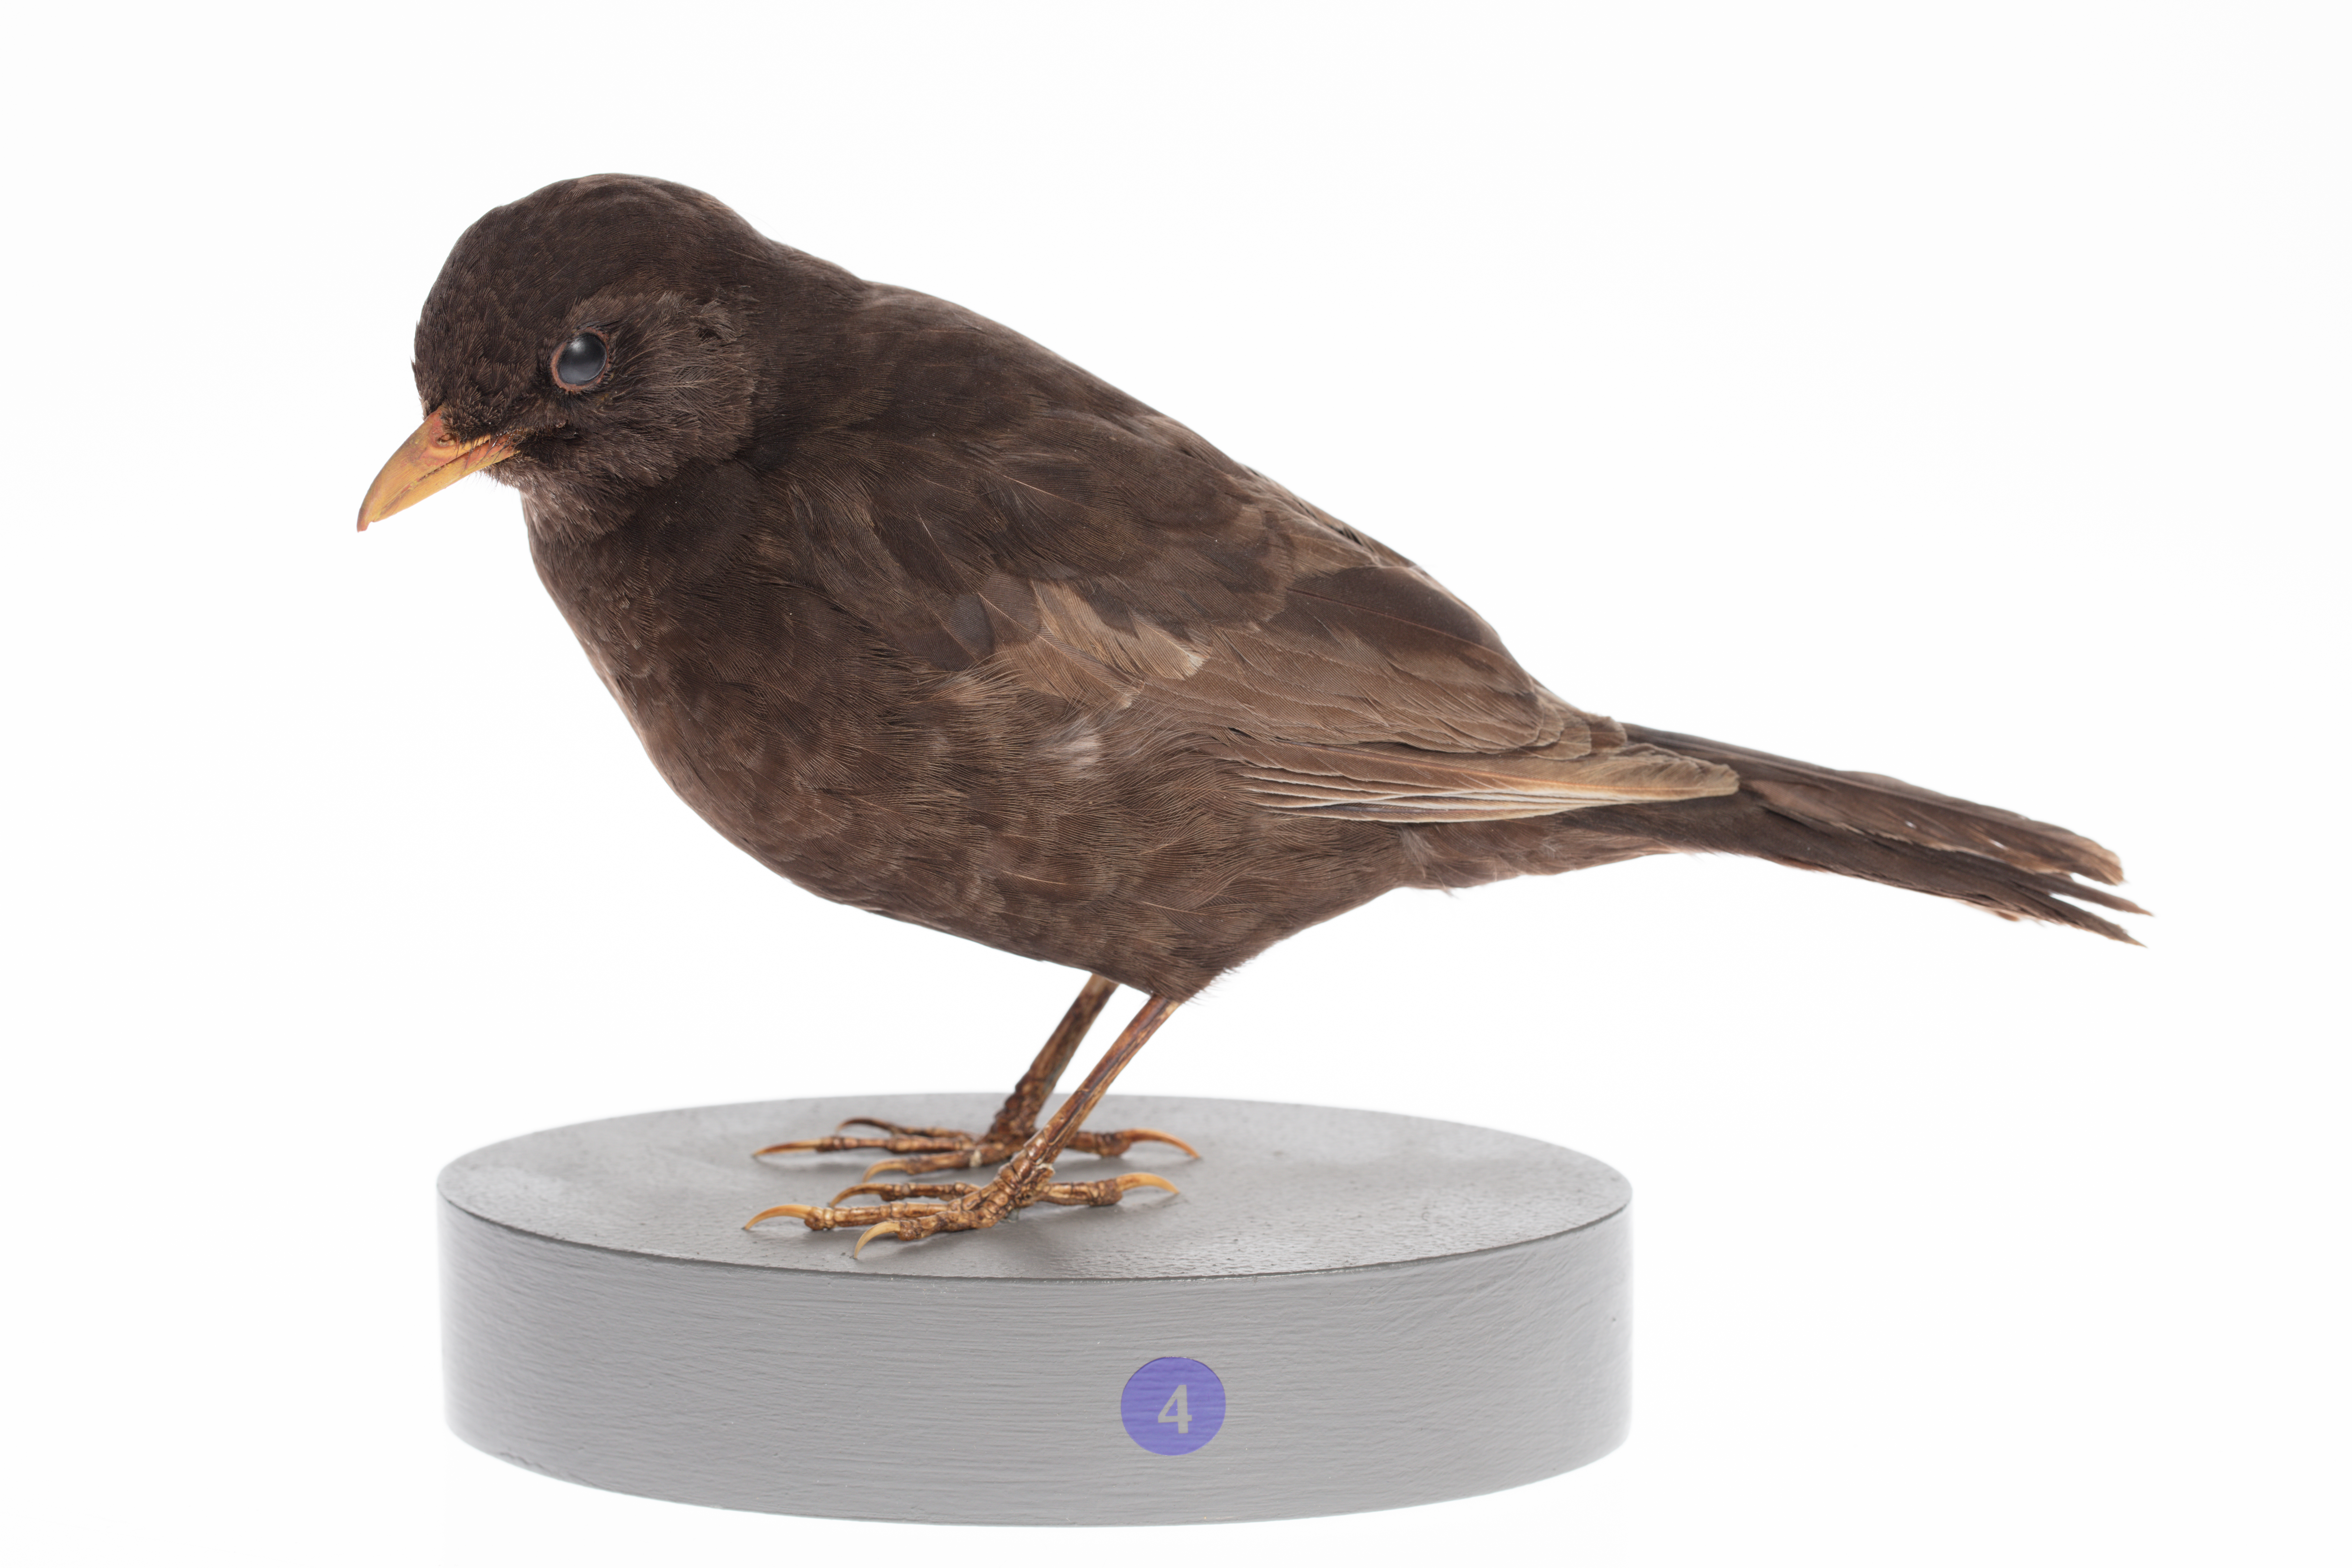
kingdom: Animalia
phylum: Chordata
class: Aves
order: Passeriformes
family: Turdidae
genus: Turdus
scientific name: Turdus merula
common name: Common blackbird
